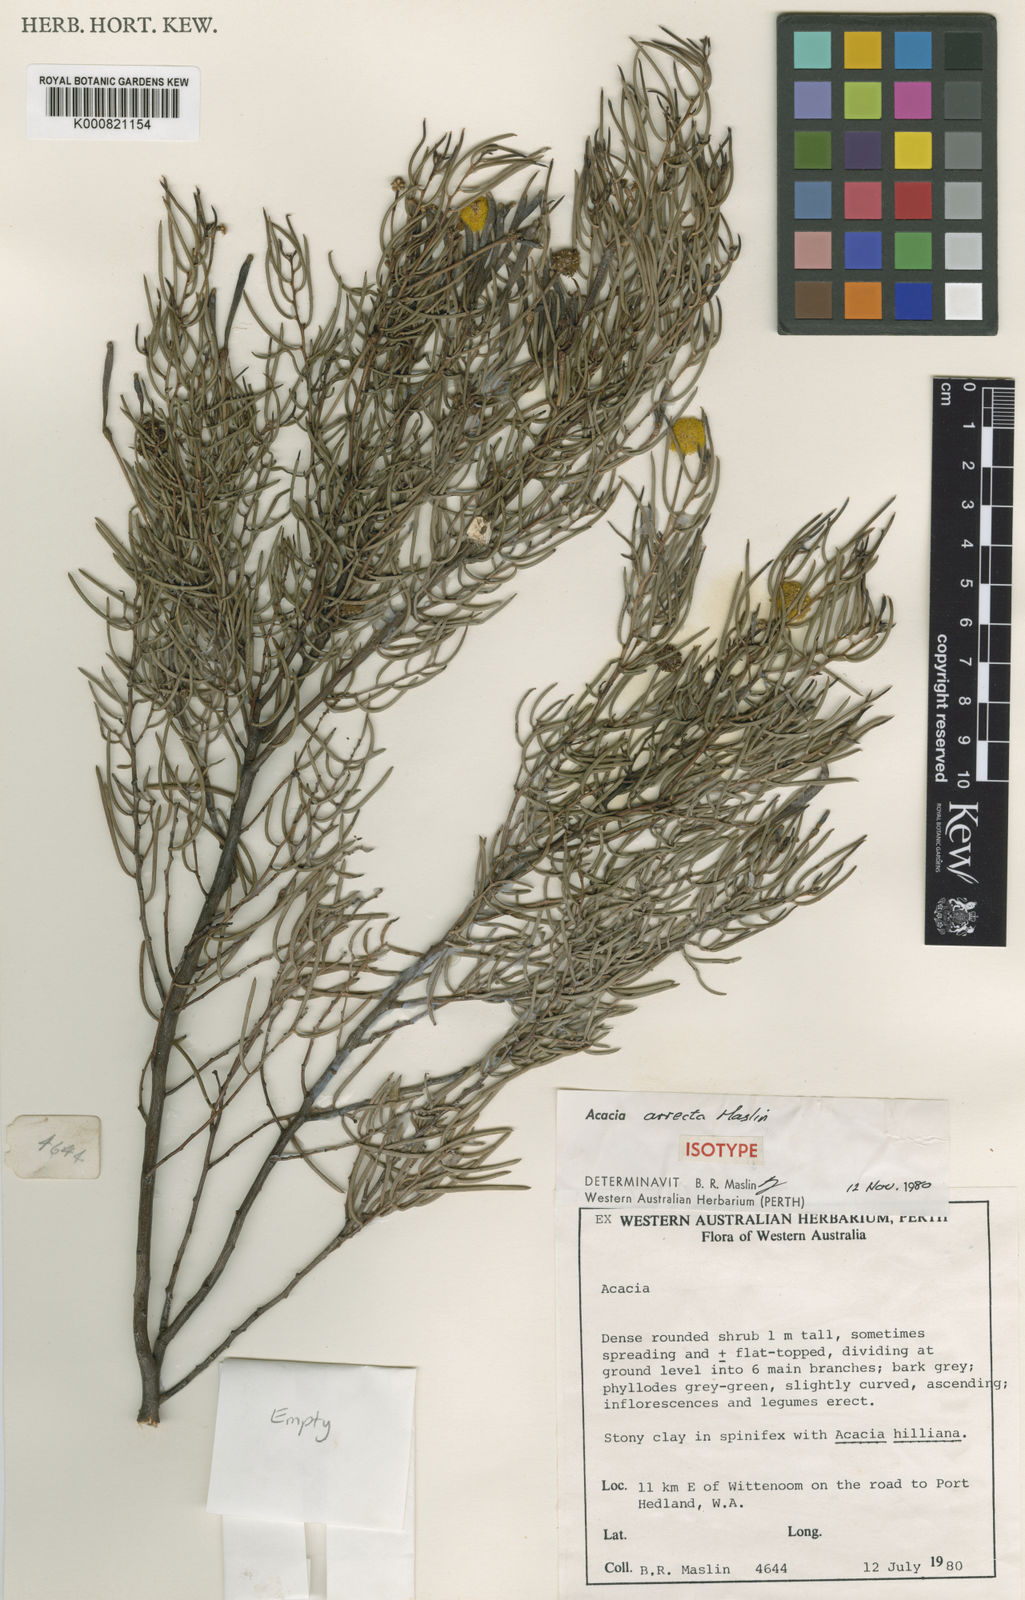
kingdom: Plantae
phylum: Tracheophyta
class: Magnoliopsida
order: Fabales
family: Fabaceae
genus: Acacia
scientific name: Acacia arrecta
